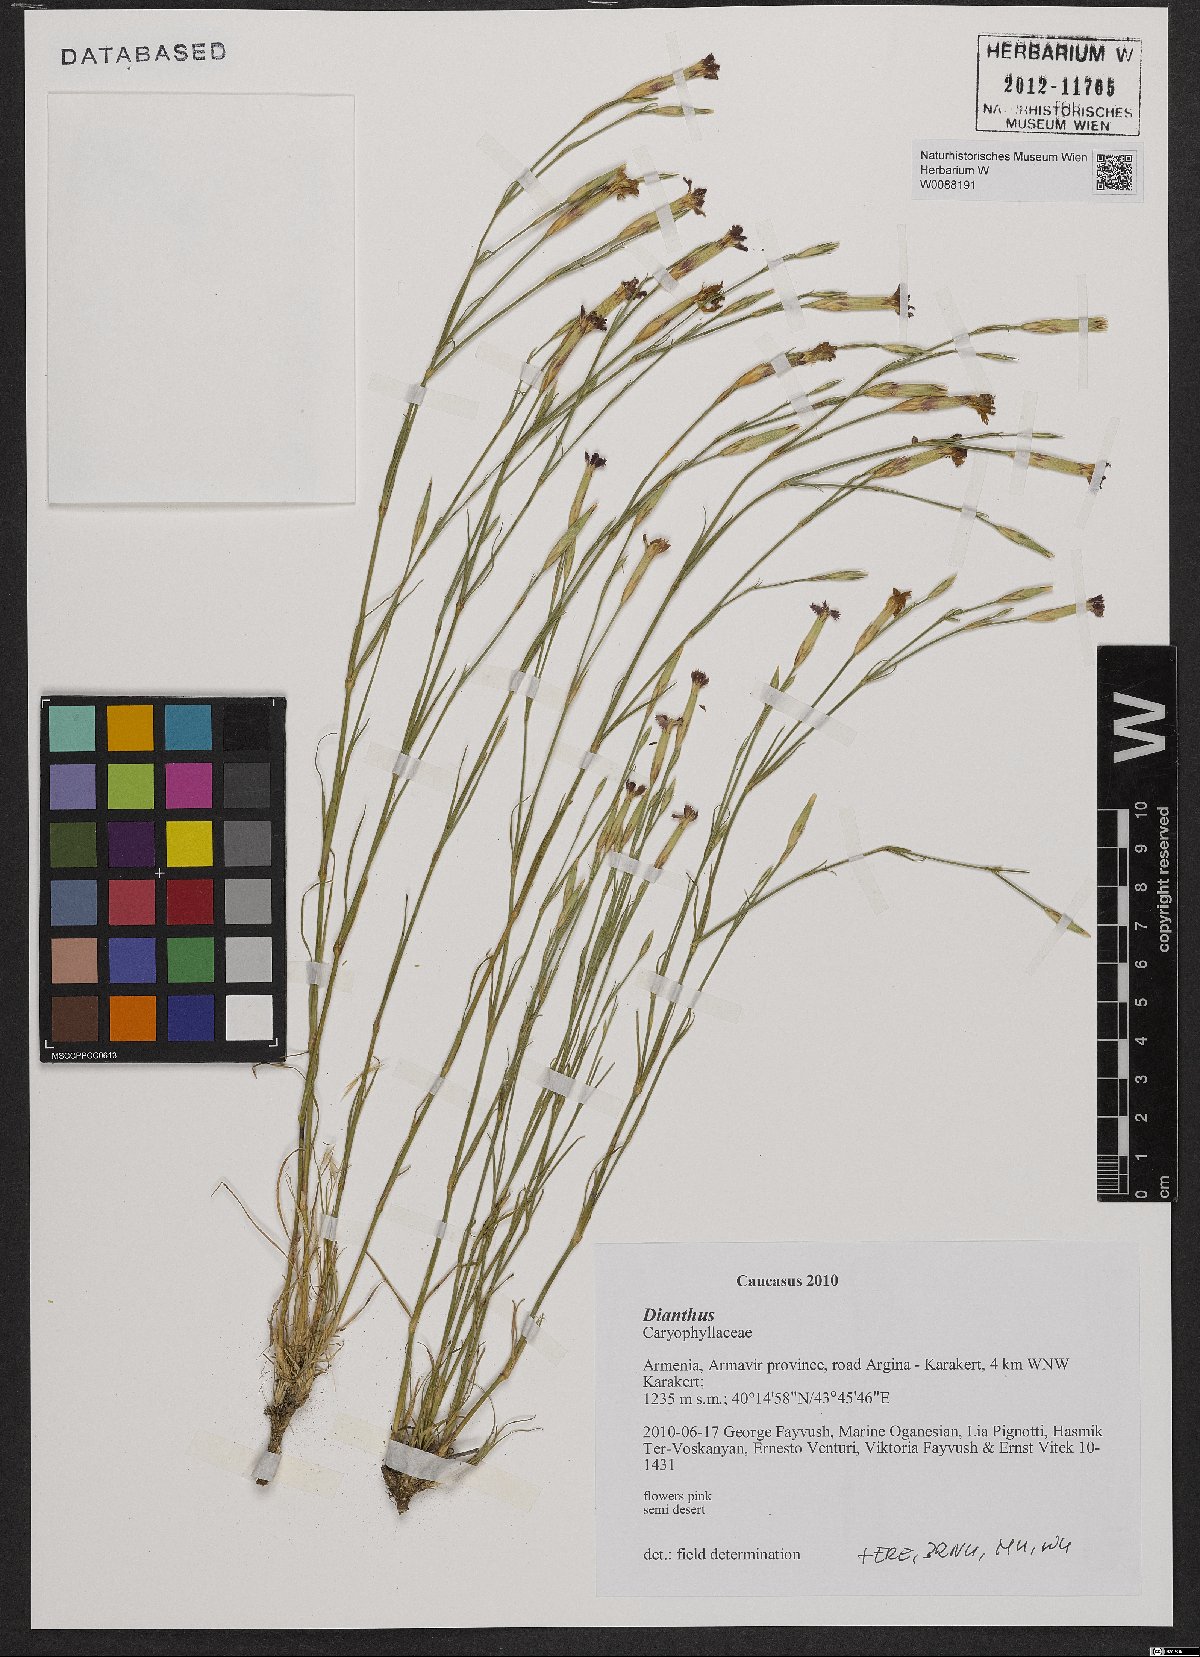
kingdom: Plantae
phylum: Tracheophyta
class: Magnoliopsida
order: Caryophyllales
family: Caryophyllaceae
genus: Dianthus
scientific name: Dianthus
